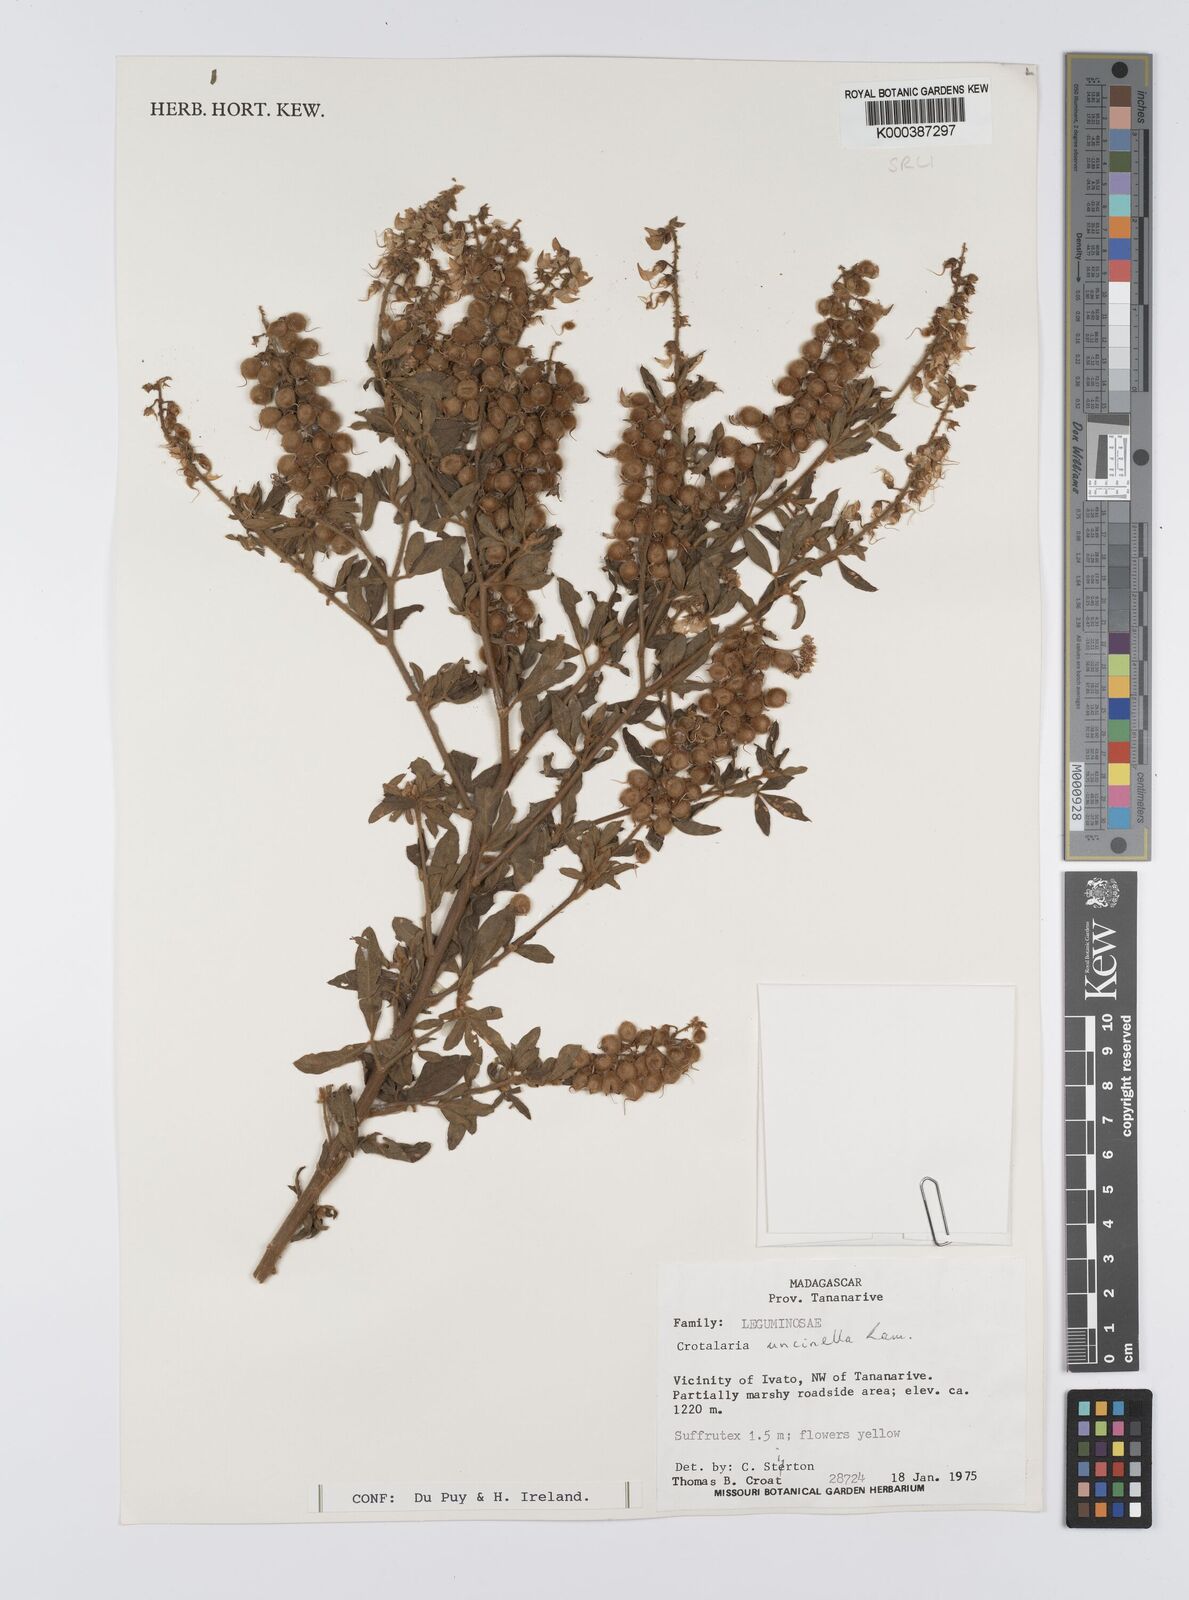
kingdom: Plantae
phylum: Tracheophyta
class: Magnoliopsida
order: Fabales
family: Fabaceae
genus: Crotalaria
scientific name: Crotalaria uncinella
